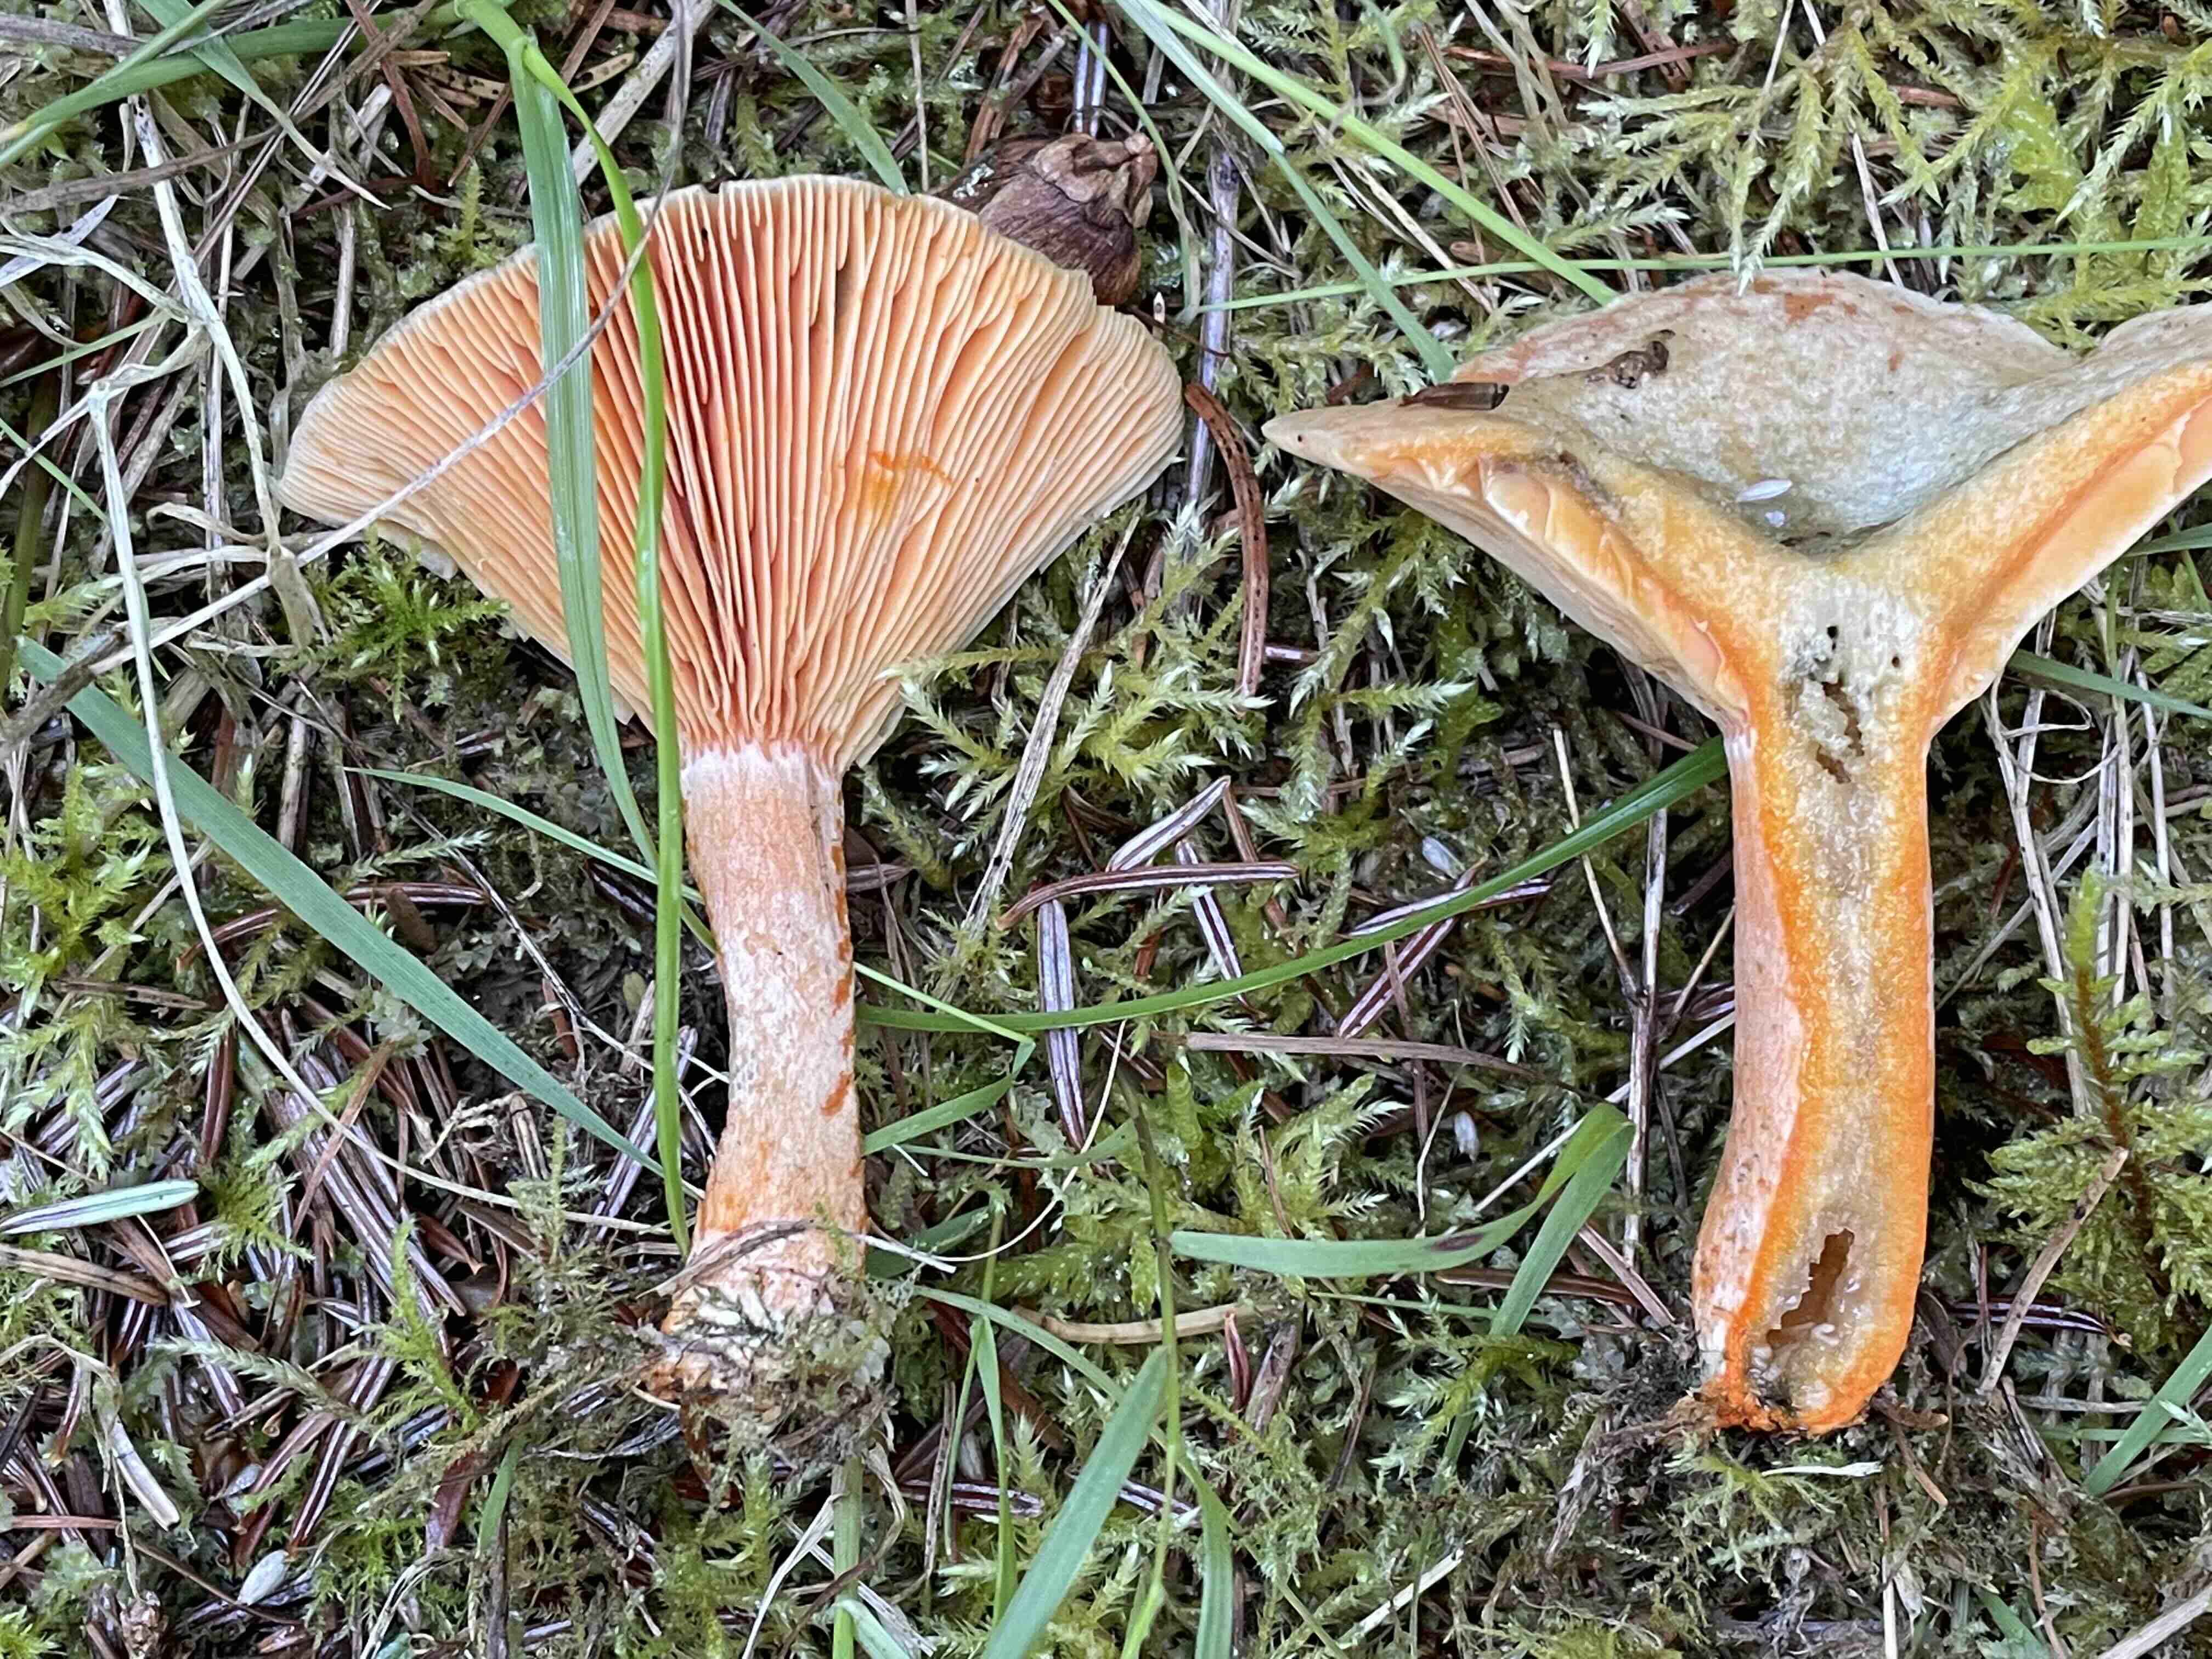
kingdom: Fungi
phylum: Basidiomycota
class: Agaricomycetes
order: Russulales
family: Russulaceae
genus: Lactarius
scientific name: Lactarius deterrimus
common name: gran-mælkehat
